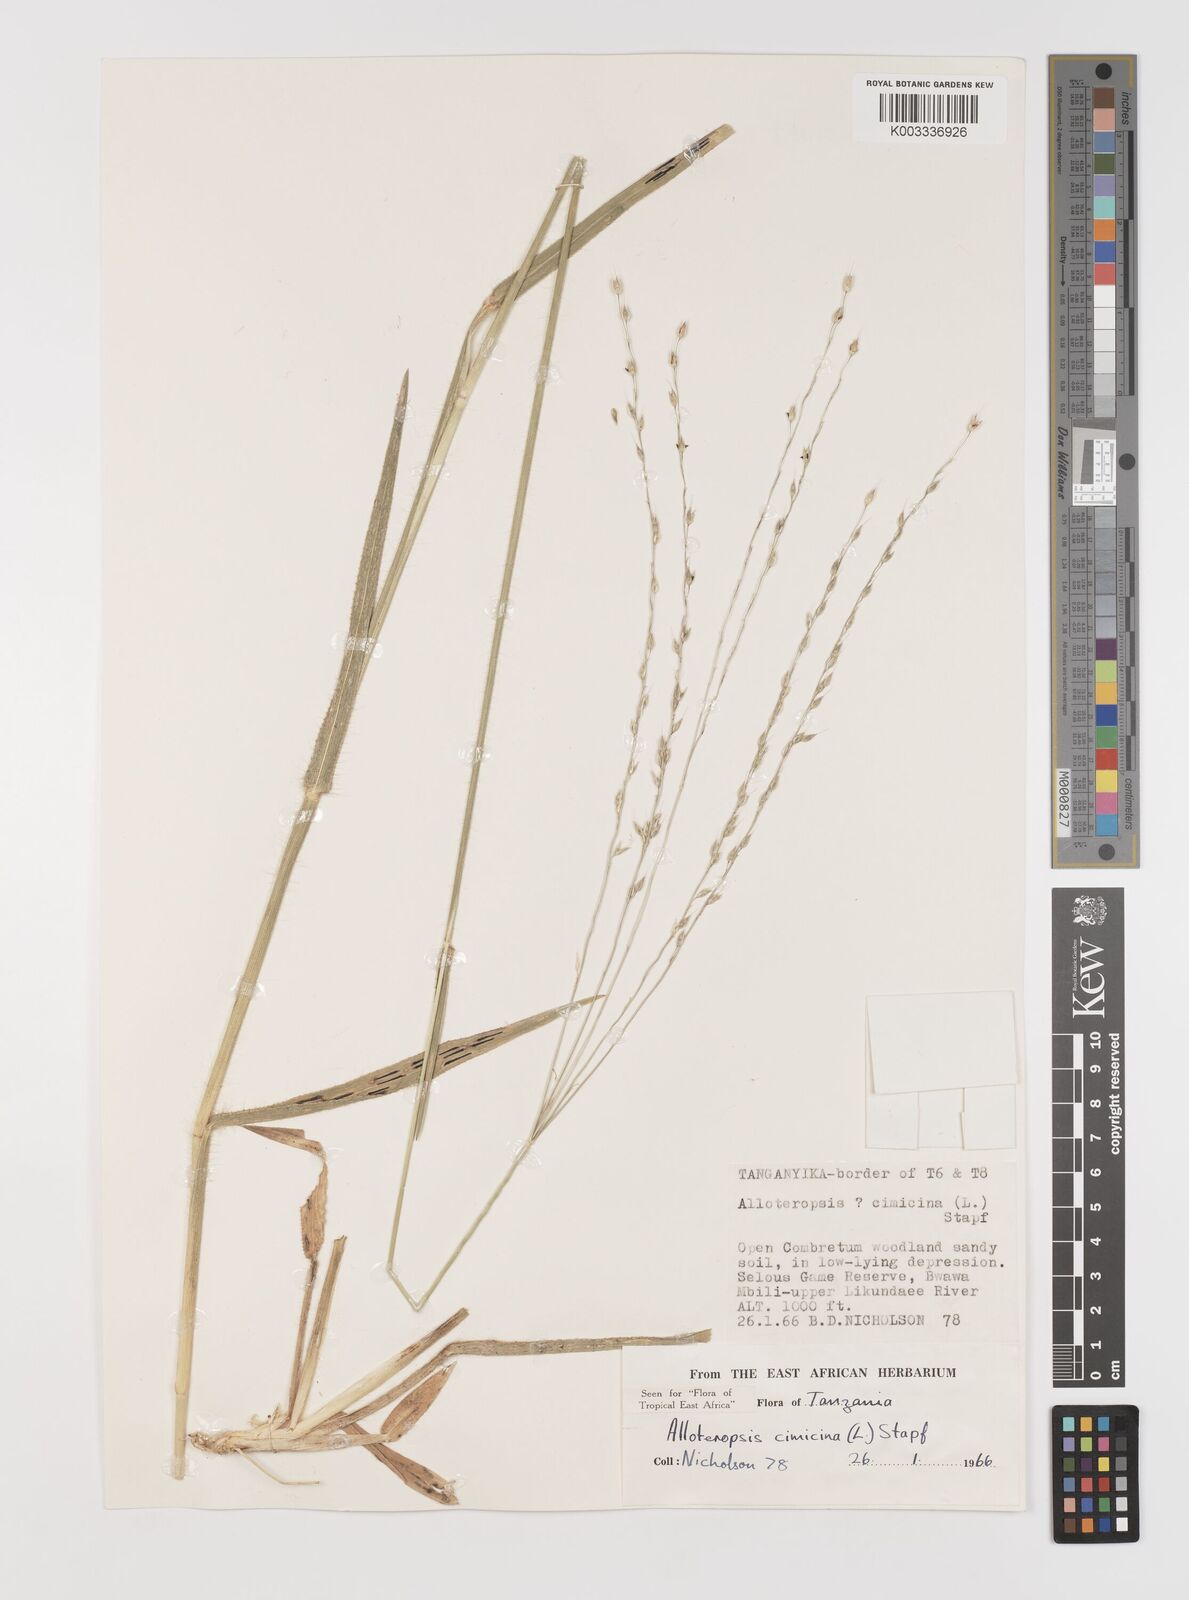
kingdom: Plantae
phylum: Tracheophyta
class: Liliopsida
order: Poales
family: Poaceae
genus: Alloteropsis
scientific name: Alloteropsis cimicina
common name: Summergrass
